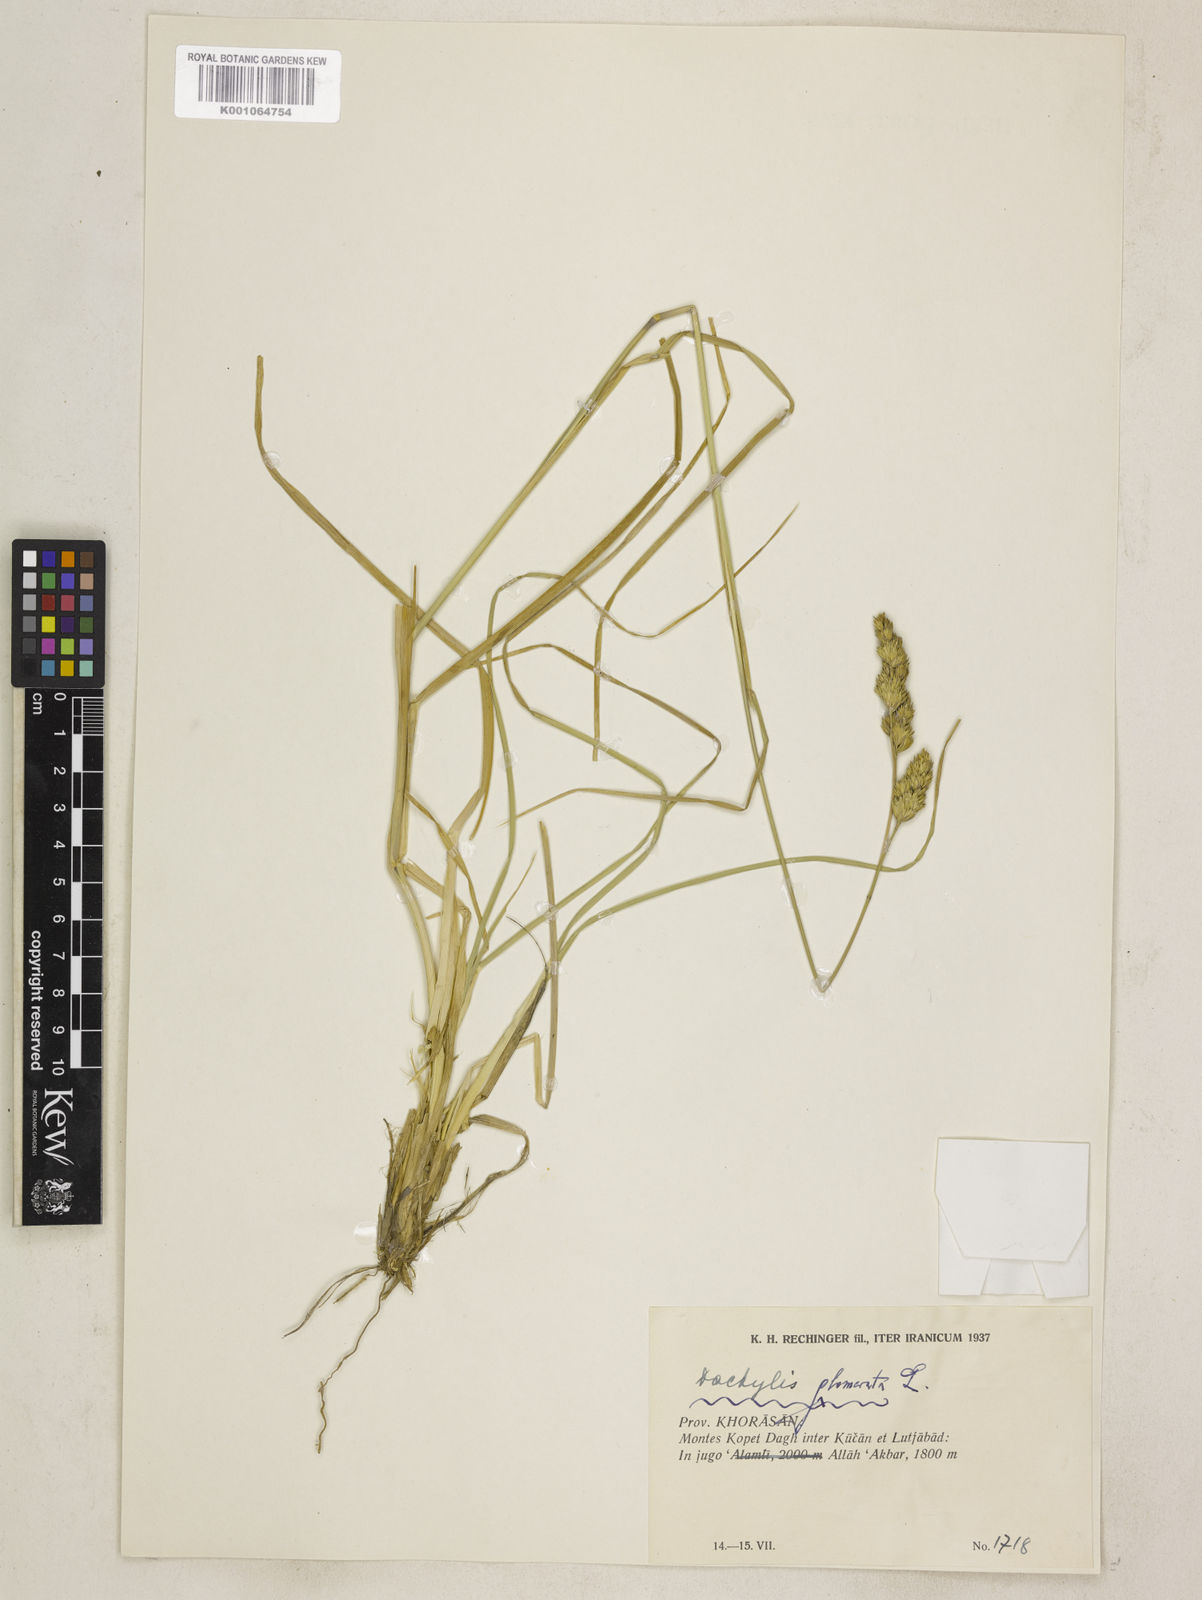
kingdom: Plantae
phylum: Tracheophyta
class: Liliopsida
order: Poales
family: Poaceae
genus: Dactylis
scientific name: Dactylis glomerata
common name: Orchardgrass
